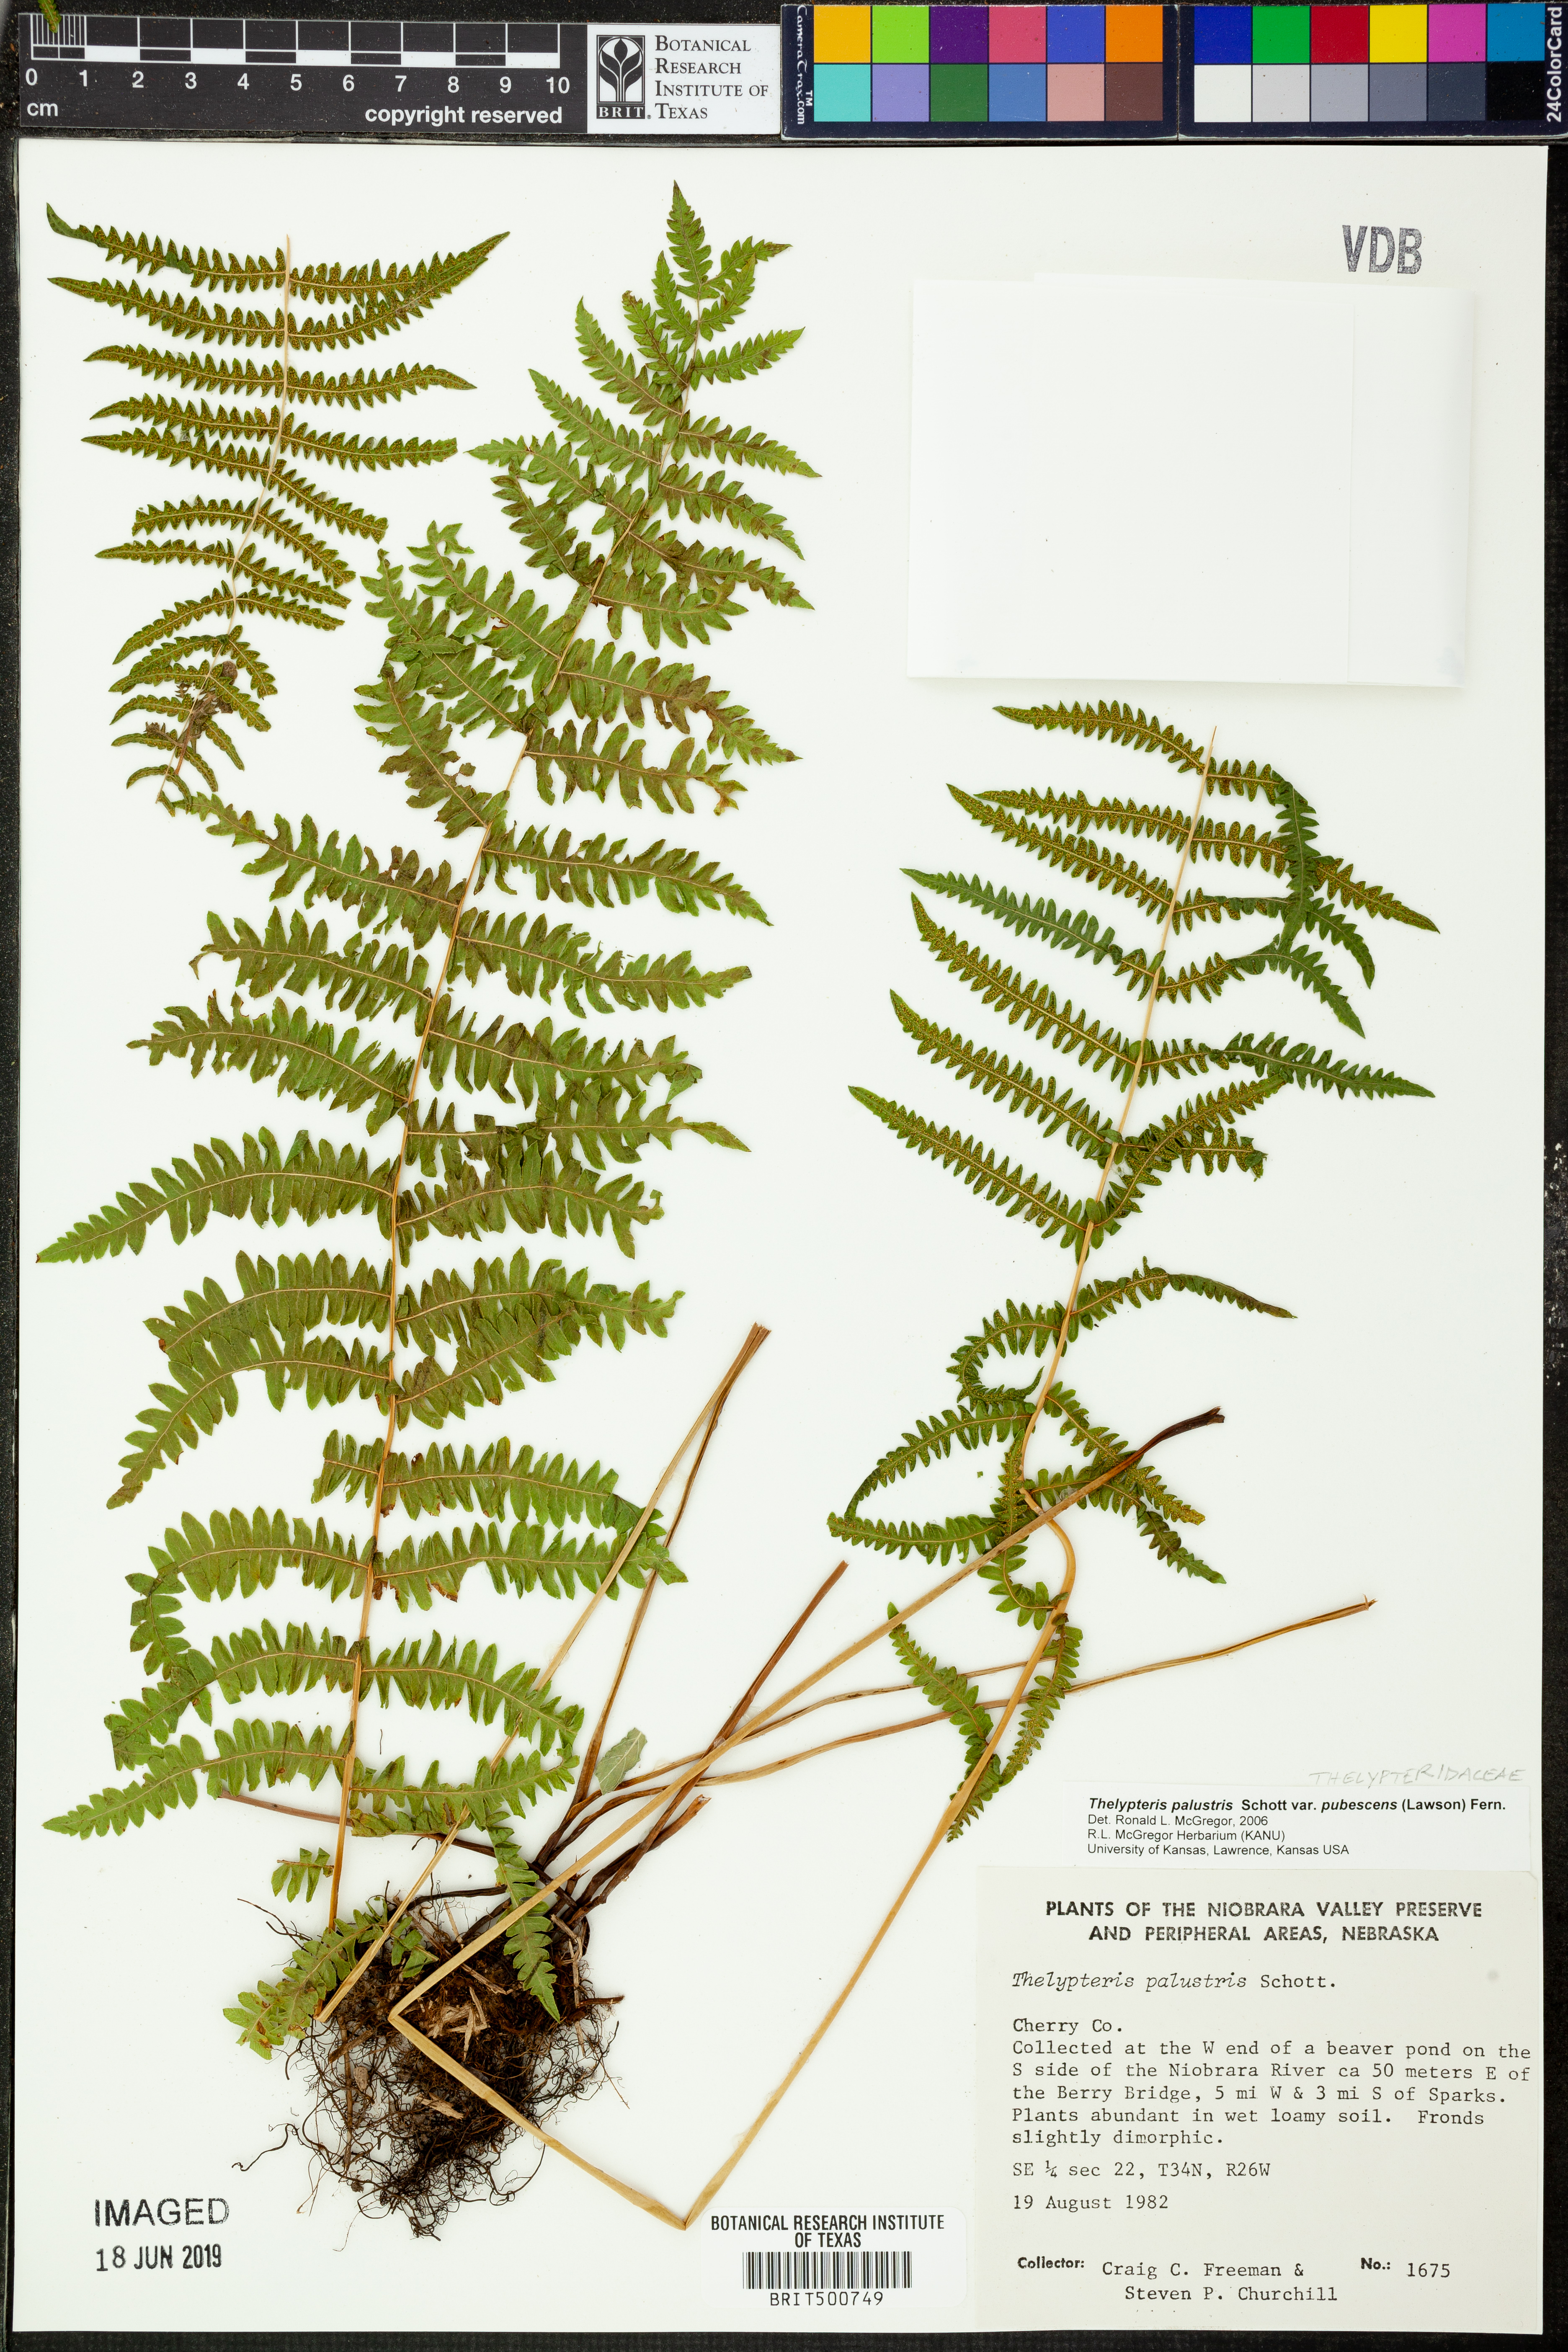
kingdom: Plantae
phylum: Tracheophyta
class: Polypodiopsida
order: Polypodiales
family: Thelypteridaceae
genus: Thelypteris
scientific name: Thelypteris palustris
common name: Marsh fern
